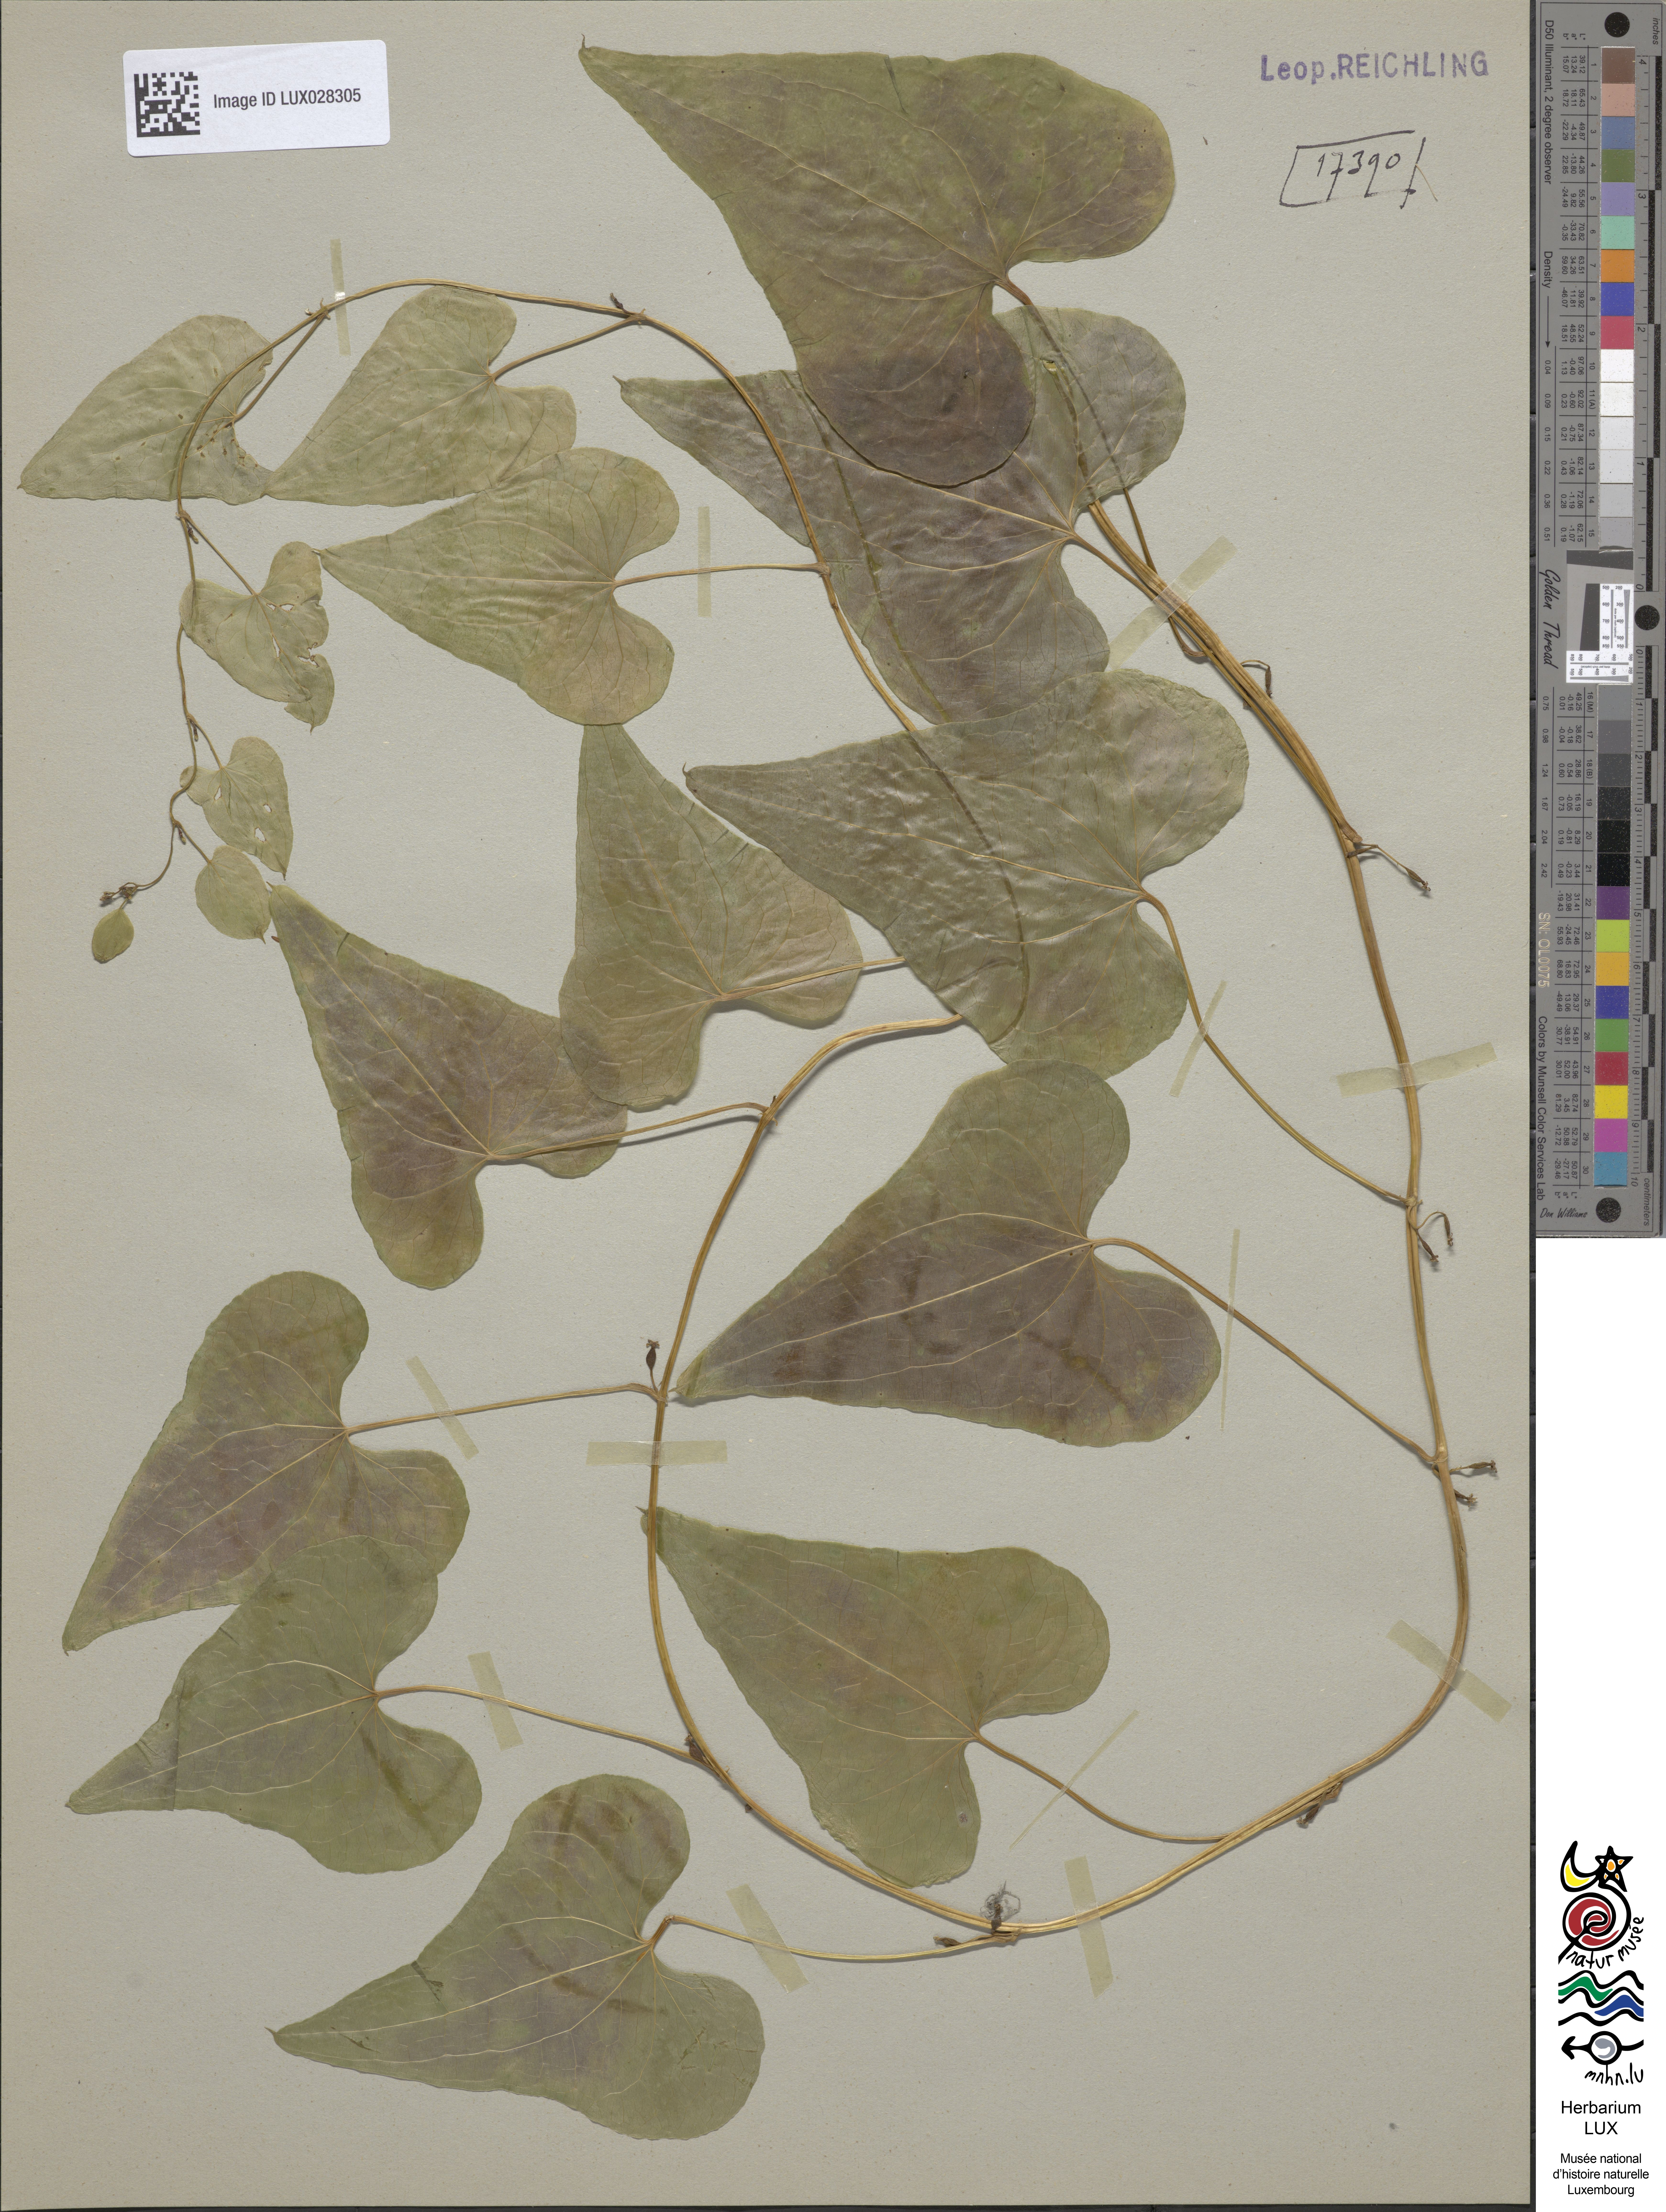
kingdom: Plantae
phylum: Tracheophyta
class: Liliopsida
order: Dioscoreales
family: Dioscoreaceae
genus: Dioscorea
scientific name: Dioscorea communis
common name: Black-bindweed
